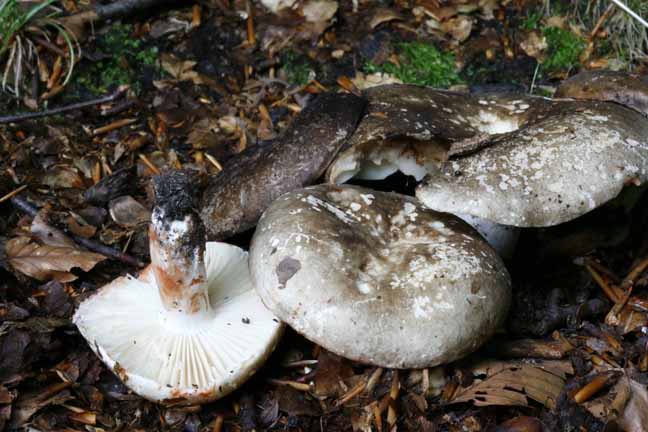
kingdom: Fungi
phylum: Basidiomycota
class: Agaricomycetes
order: Russulales
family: Russulaceae
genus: Russula
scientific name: Russula adusta
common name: sværtende skørhat
